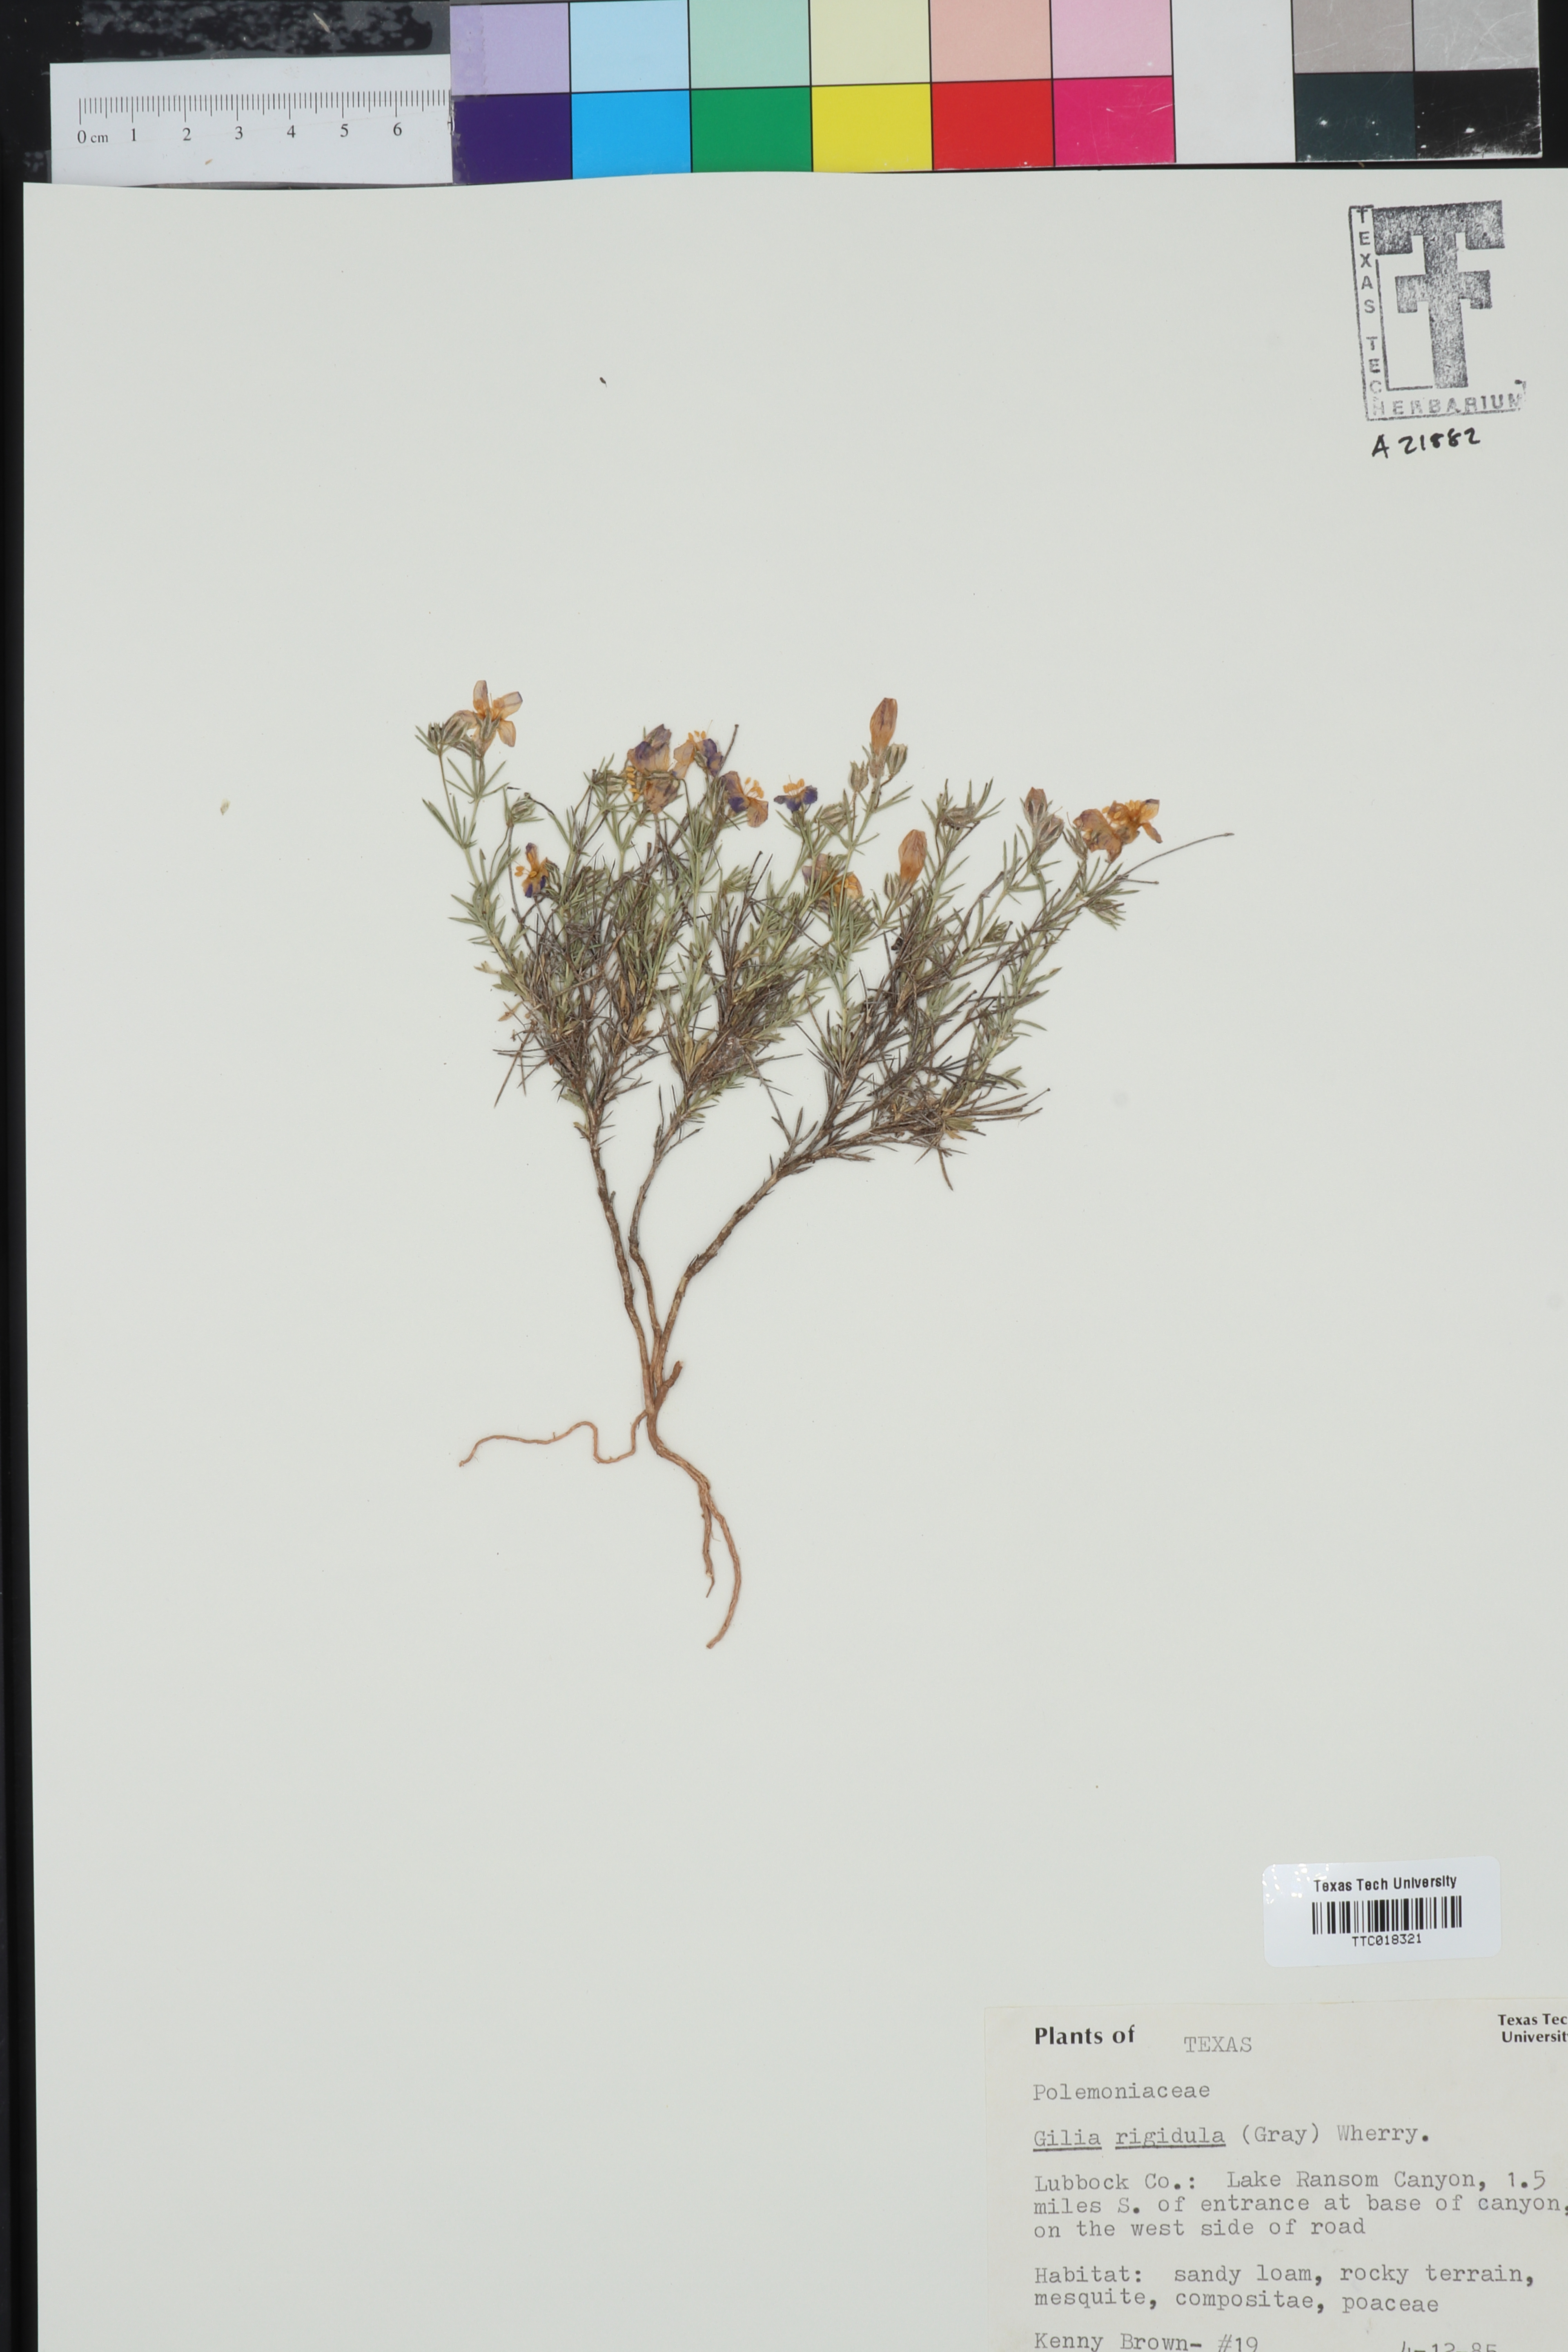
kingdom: Plantae
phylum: Tracheophyta
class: Magnoliopsida
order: Ericales
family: Polemoniaceae
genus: Giliastrum
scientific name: Giliastrum rigidulum
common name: Bluebowls
